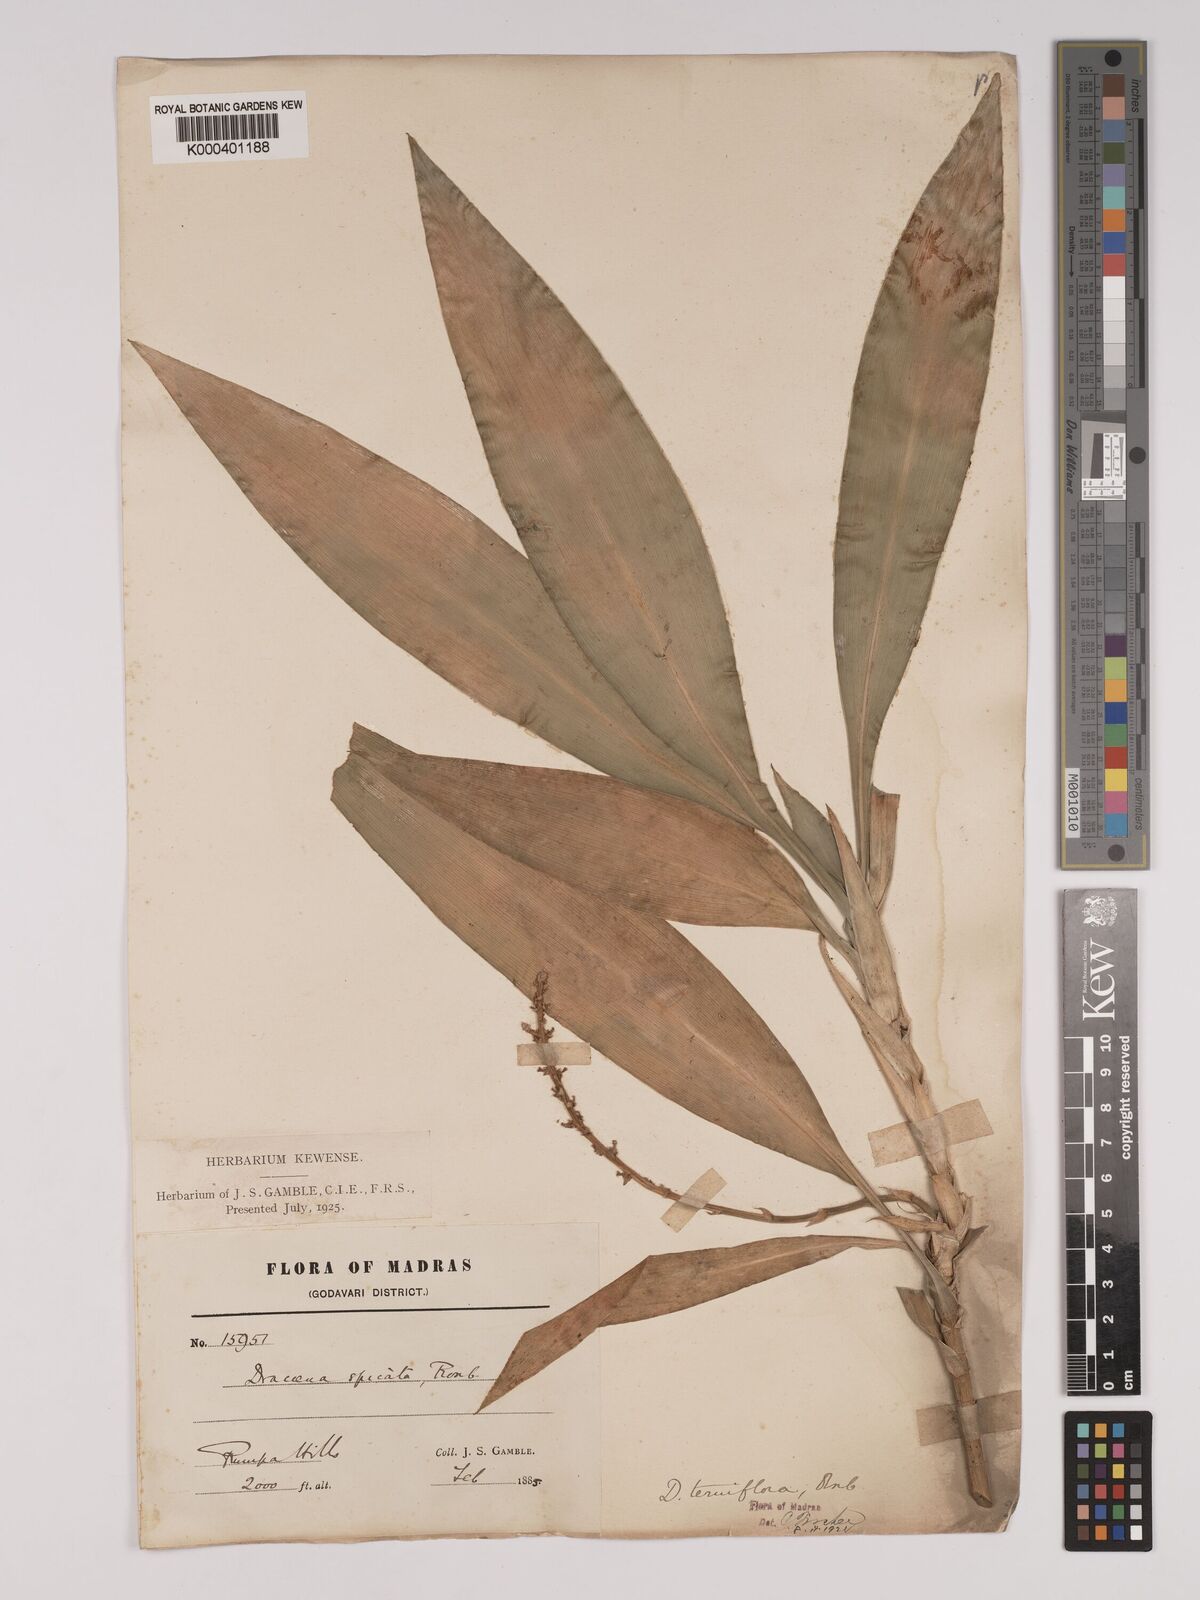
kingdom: Plantae
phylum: Tracheophyta
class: Liliopsida
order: Asparagales
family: Asparagaceae
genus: Dracaena
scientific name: Dracaena terniflora
